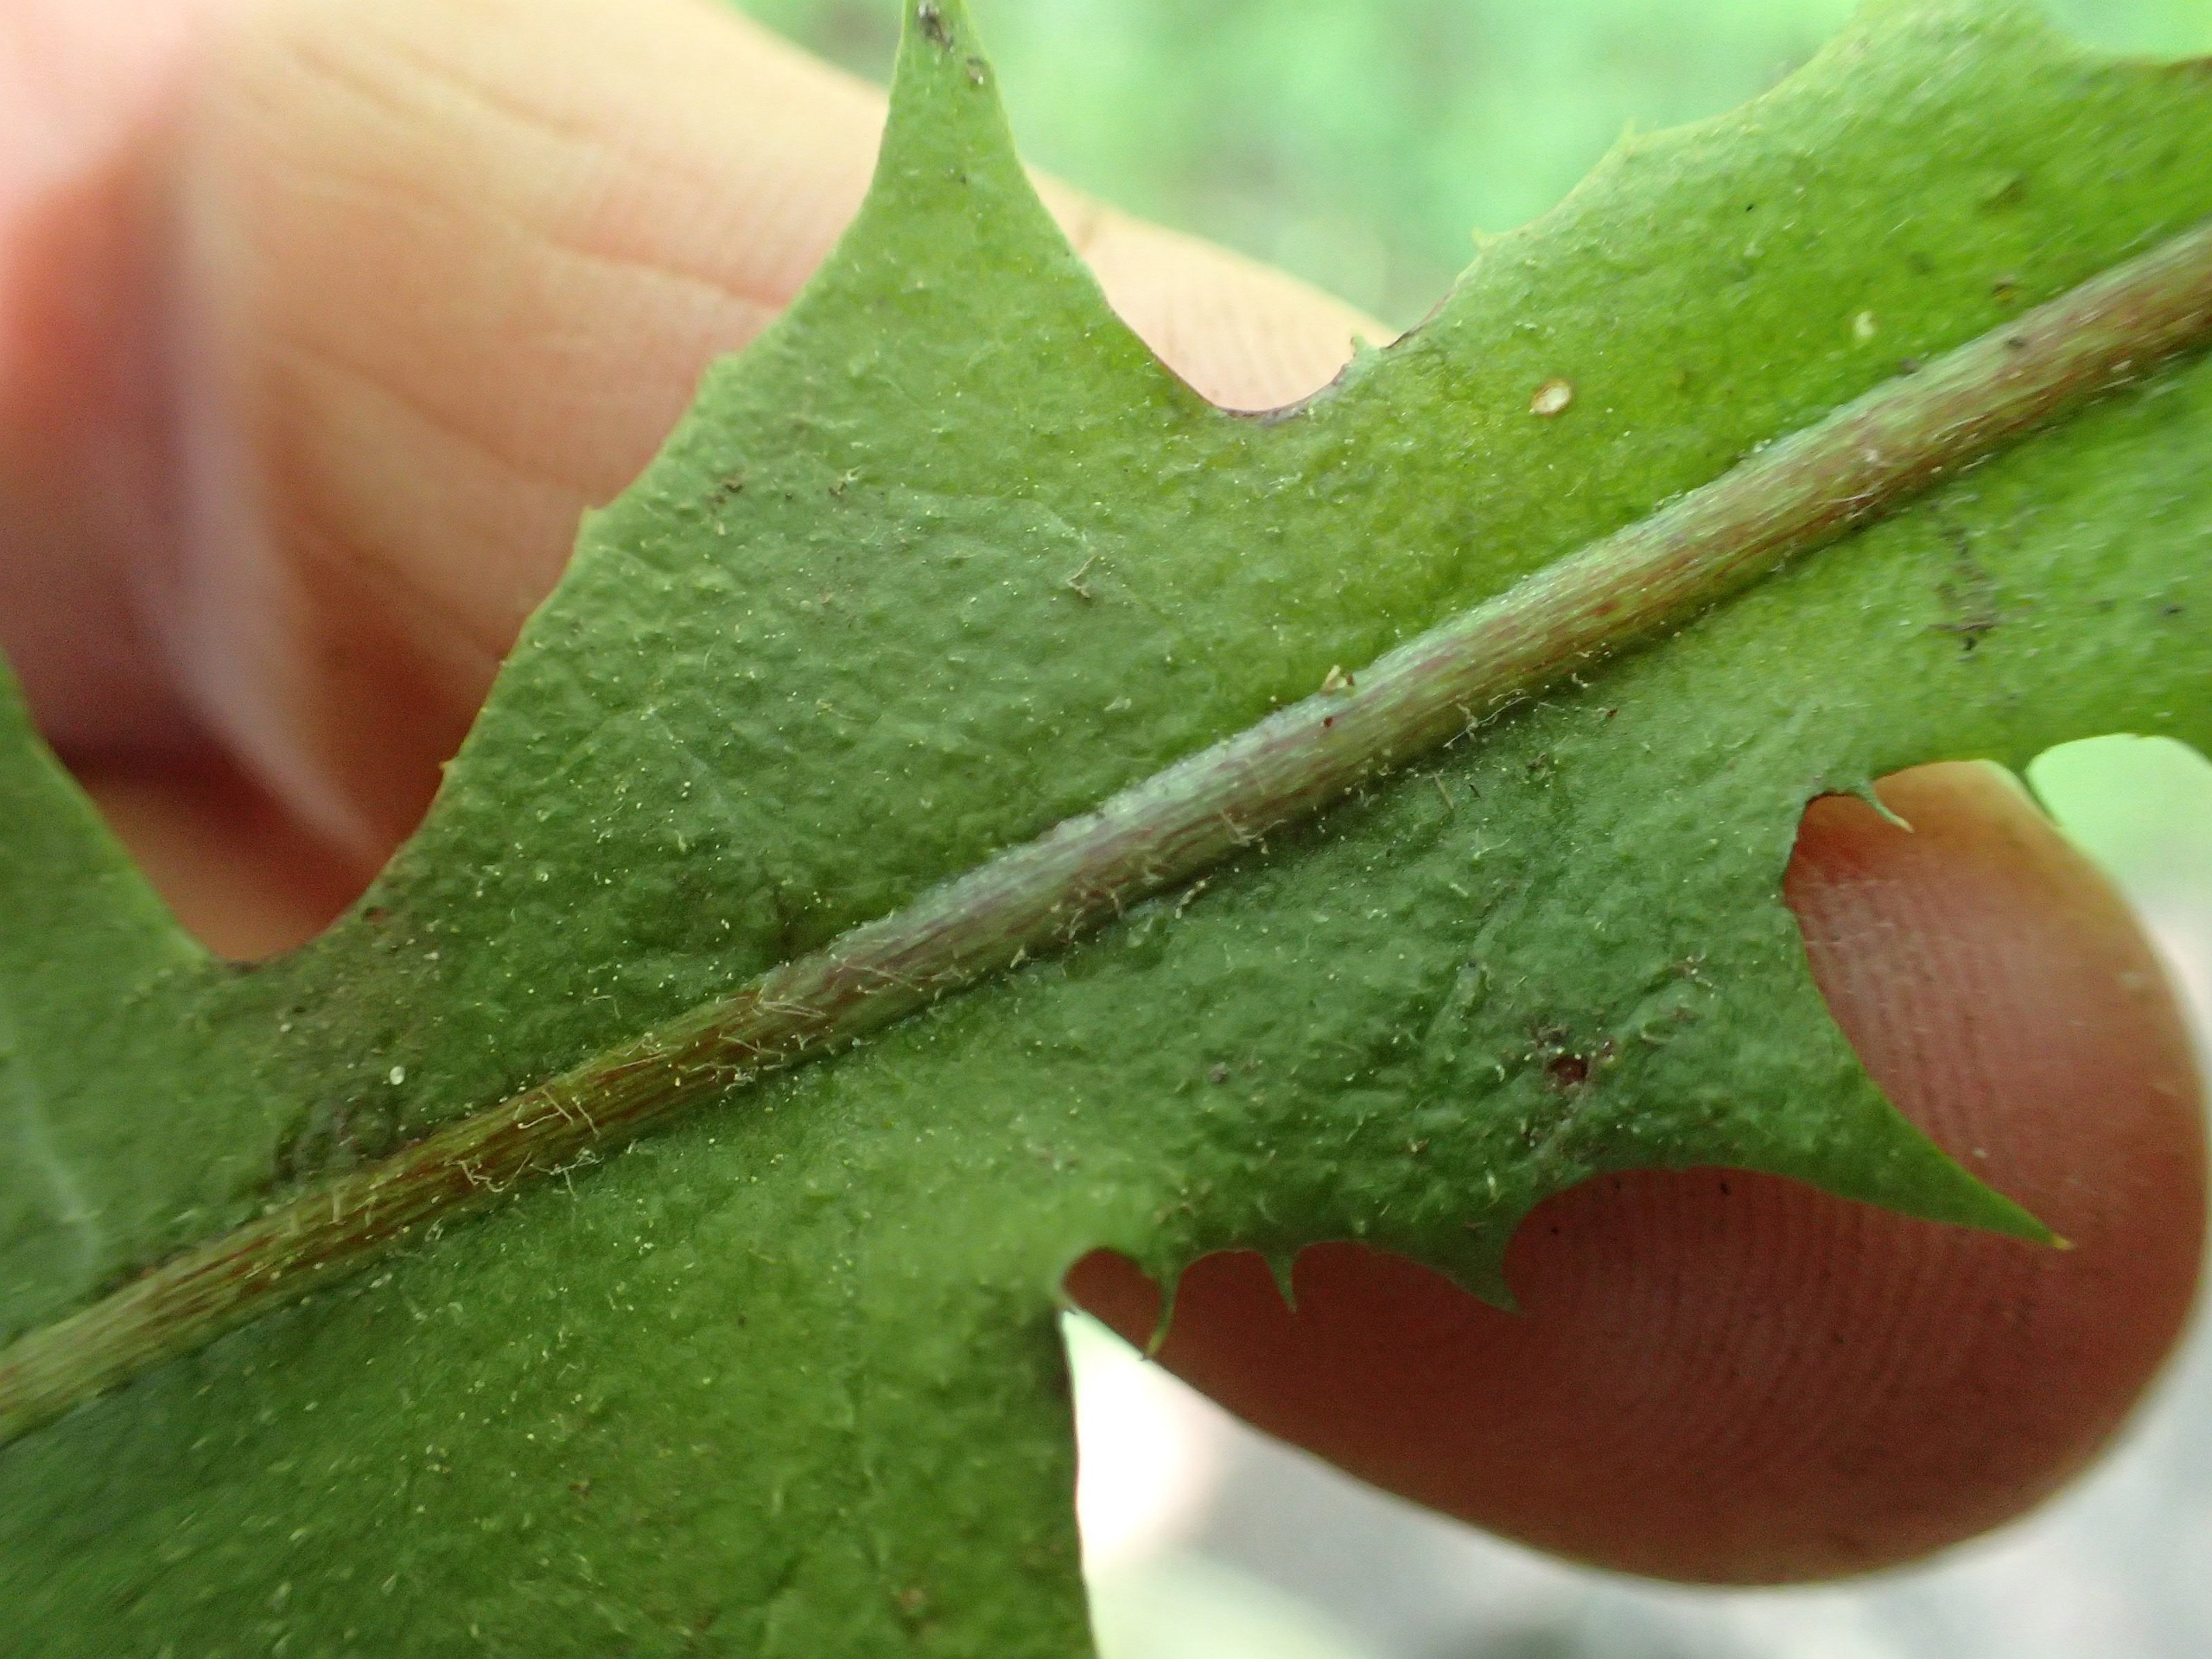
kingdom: Plantae
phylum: Tracheophyta
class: Magnoliopsida
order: Asterales
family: Asteraceae
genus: Taraxacum
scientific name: Taraxacum gelertii
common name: Gelerts pletmælkebøtte
